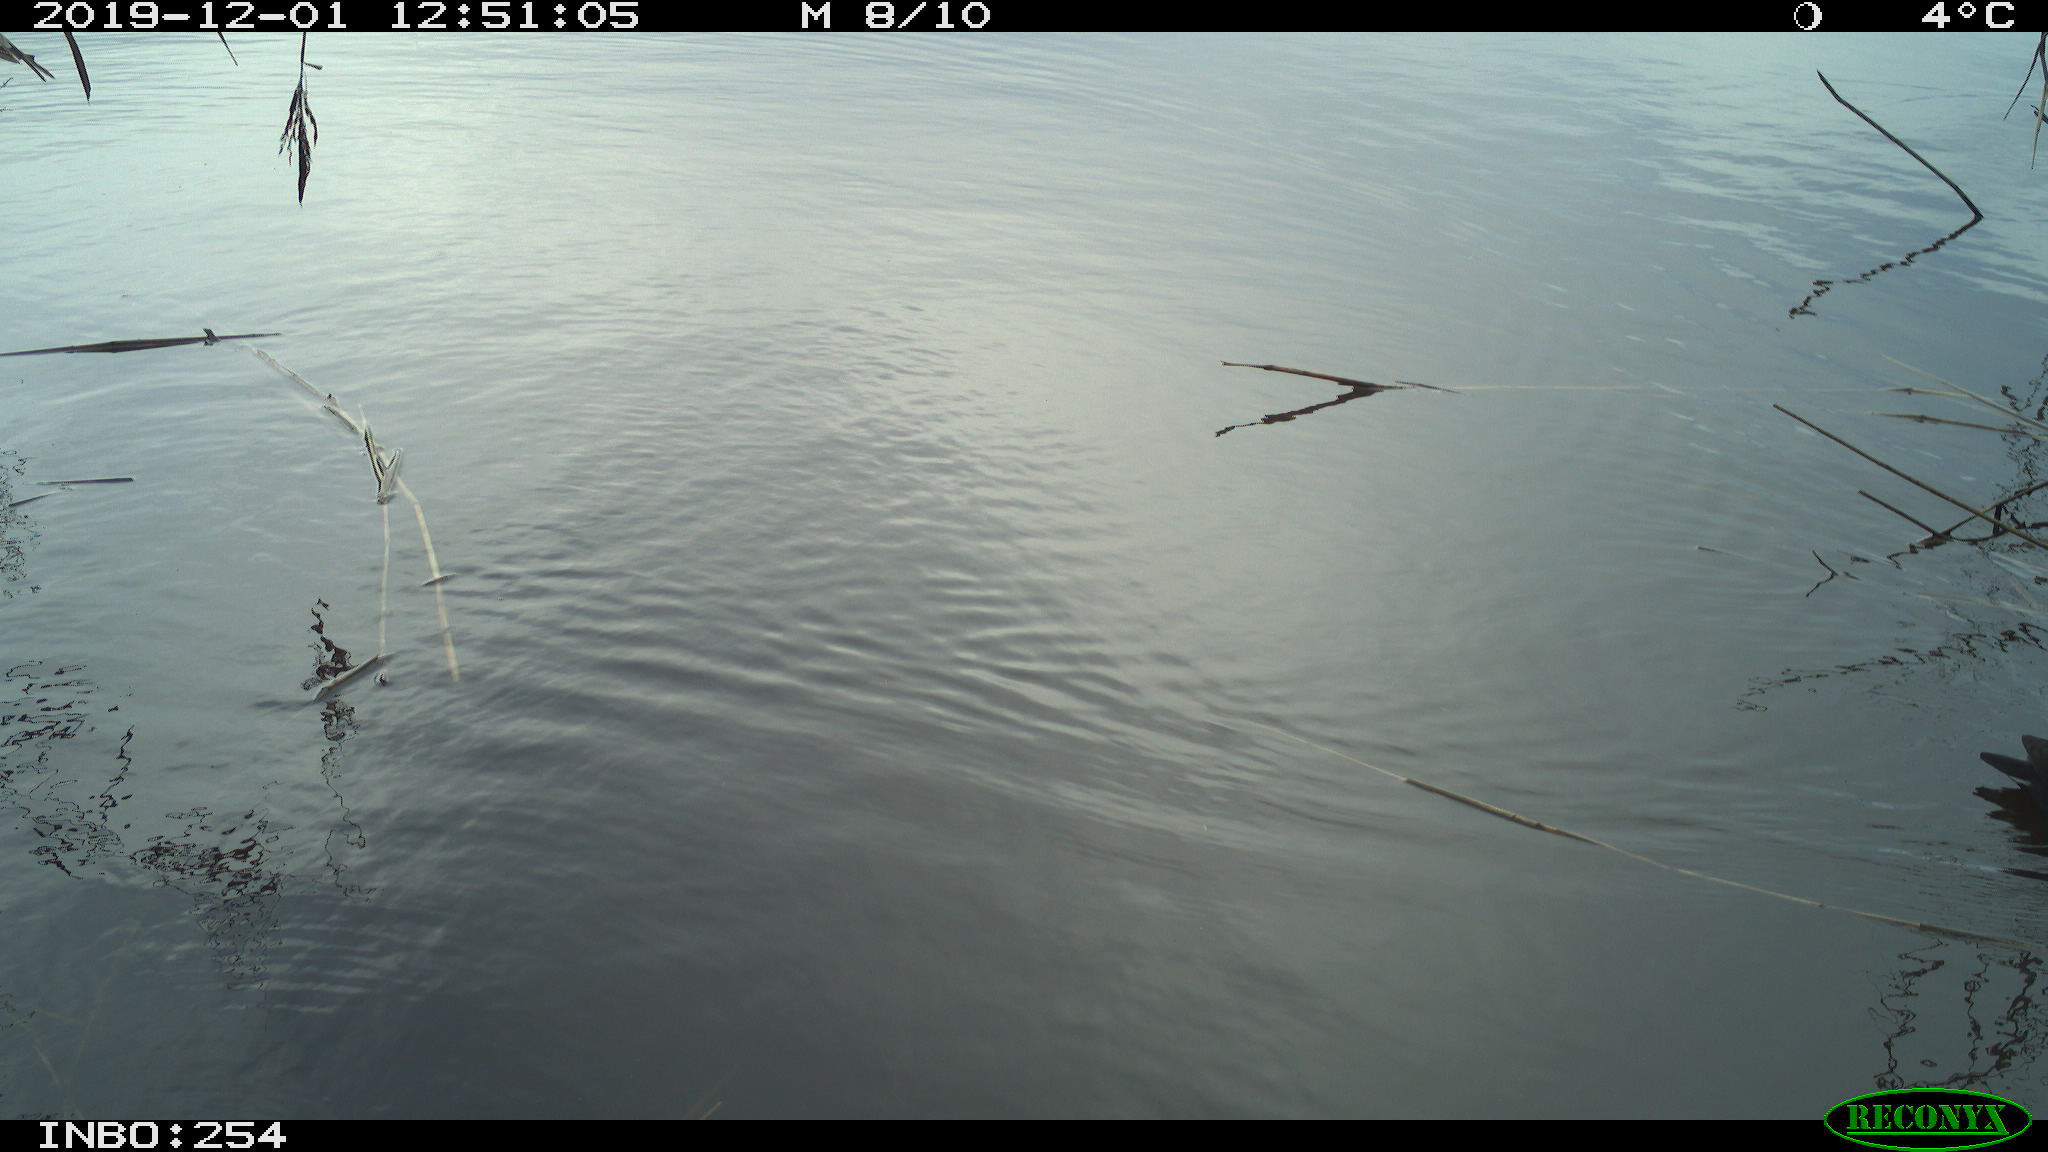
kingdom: Animalia
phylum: Chordata
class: Aves
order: Gruiformes
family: Rallidae
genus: Gallinula
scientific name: Gallinula chloropus
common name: Common moorhen
